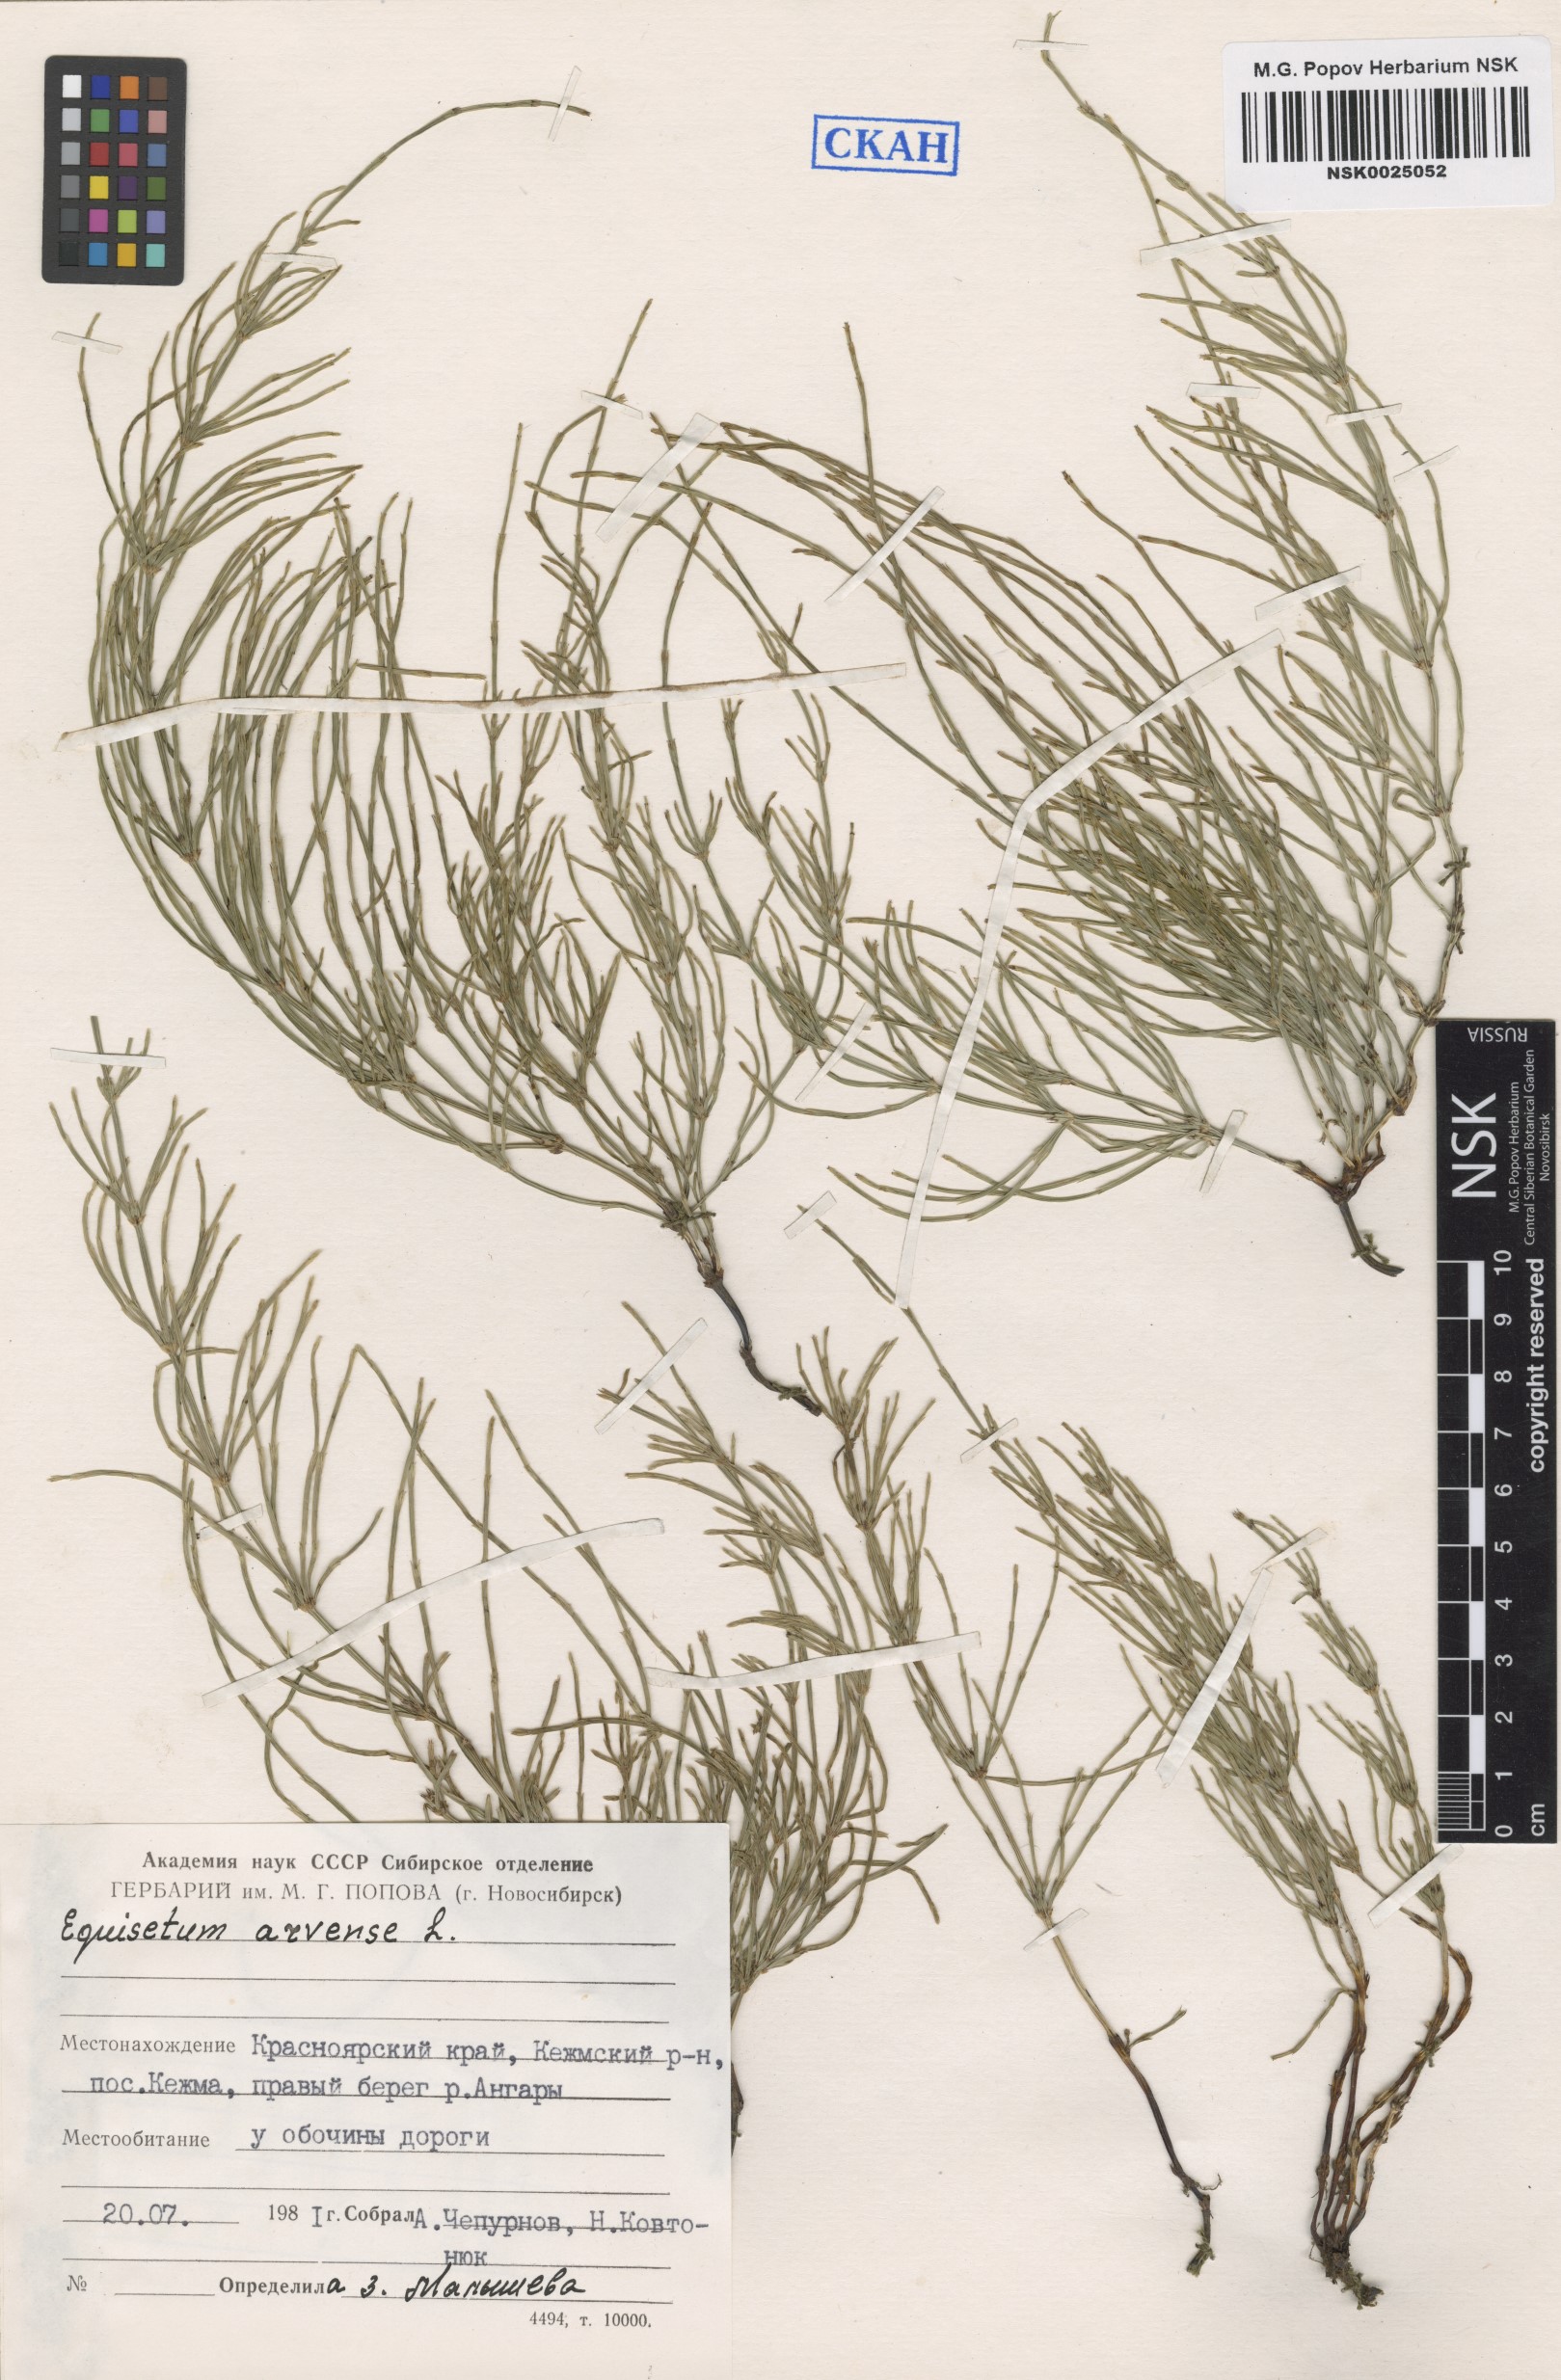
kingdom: Plantae
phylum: Tracheophyta
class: Polypodiopsida
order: Equisetales
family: Equisetaceae
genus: Equisetum
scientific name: Equisetum arvense
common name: Field horsetail
